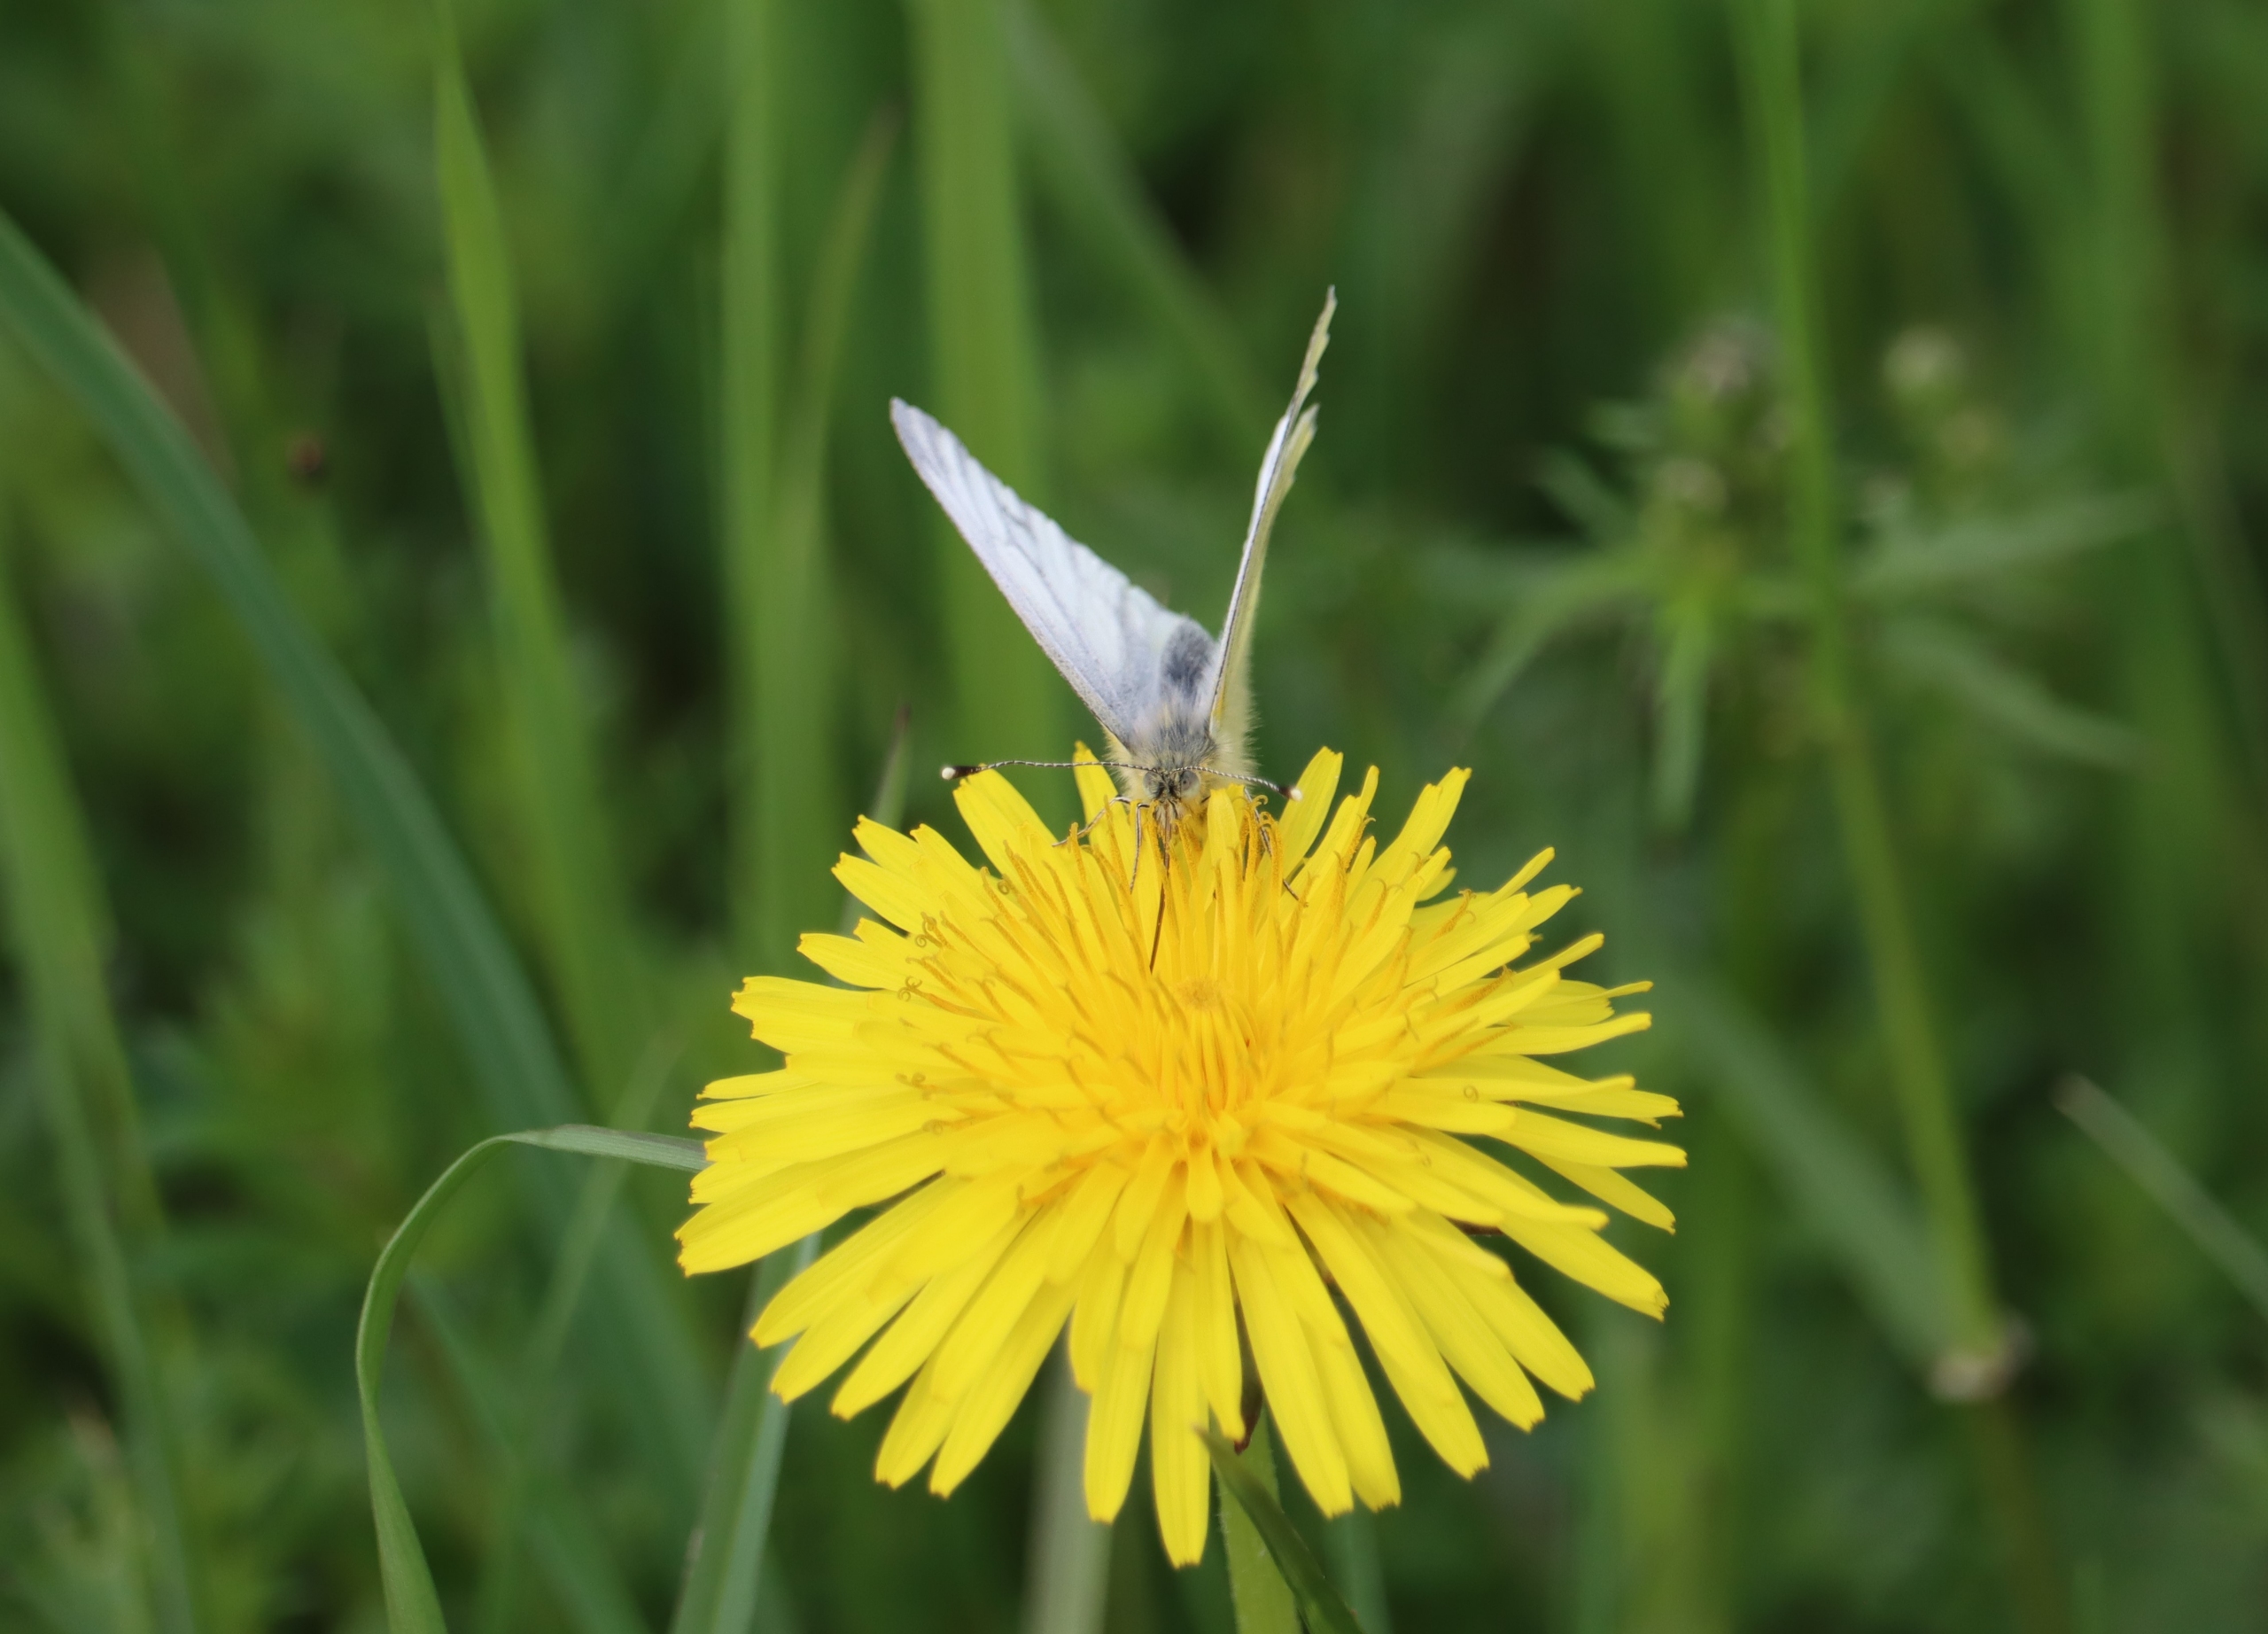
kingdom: Animalia
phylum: Arthropoda
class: Insecta
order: Lepidoptera
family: Pieridae
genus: Pieris
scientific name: Pieris napi
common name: Grønåret kålsommerfugl
